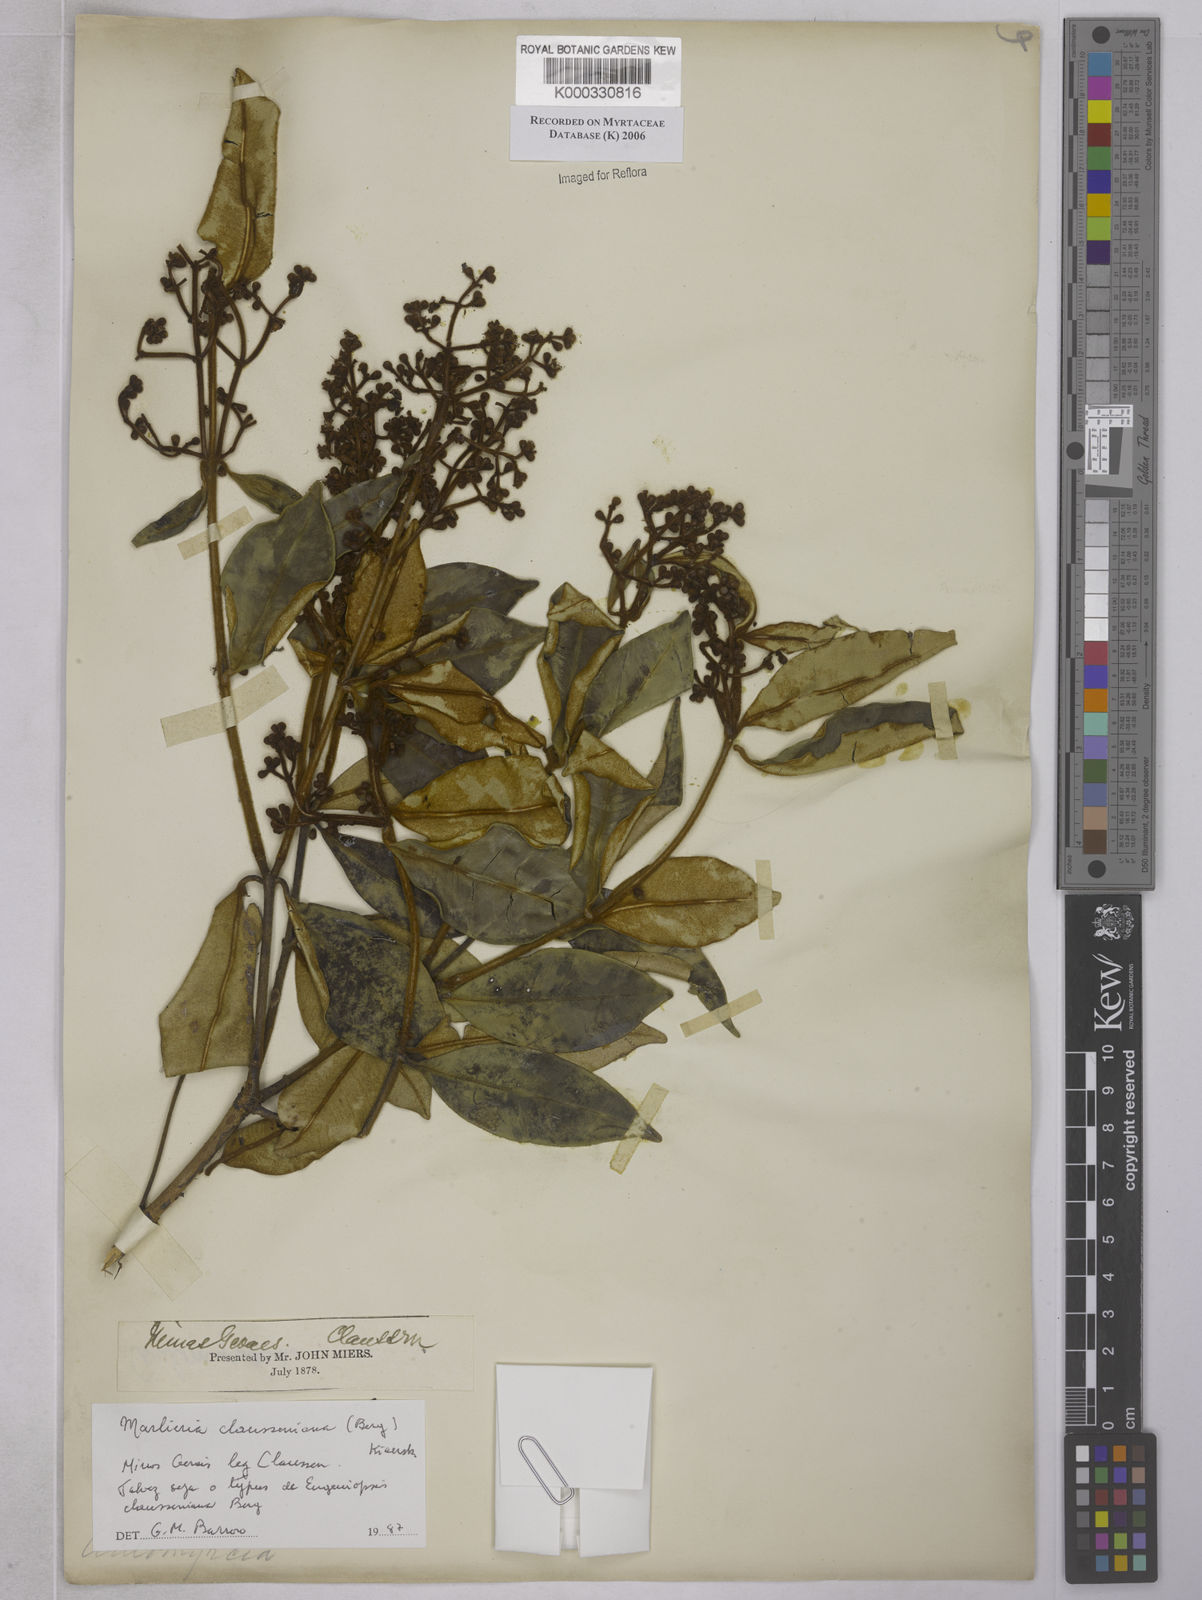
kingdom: Plantae
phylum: Tracheophyta
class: Magnoliopsida
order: Myrtales
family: Myrtaceae
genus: Marlierea
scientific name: Marlierea clausseniana
